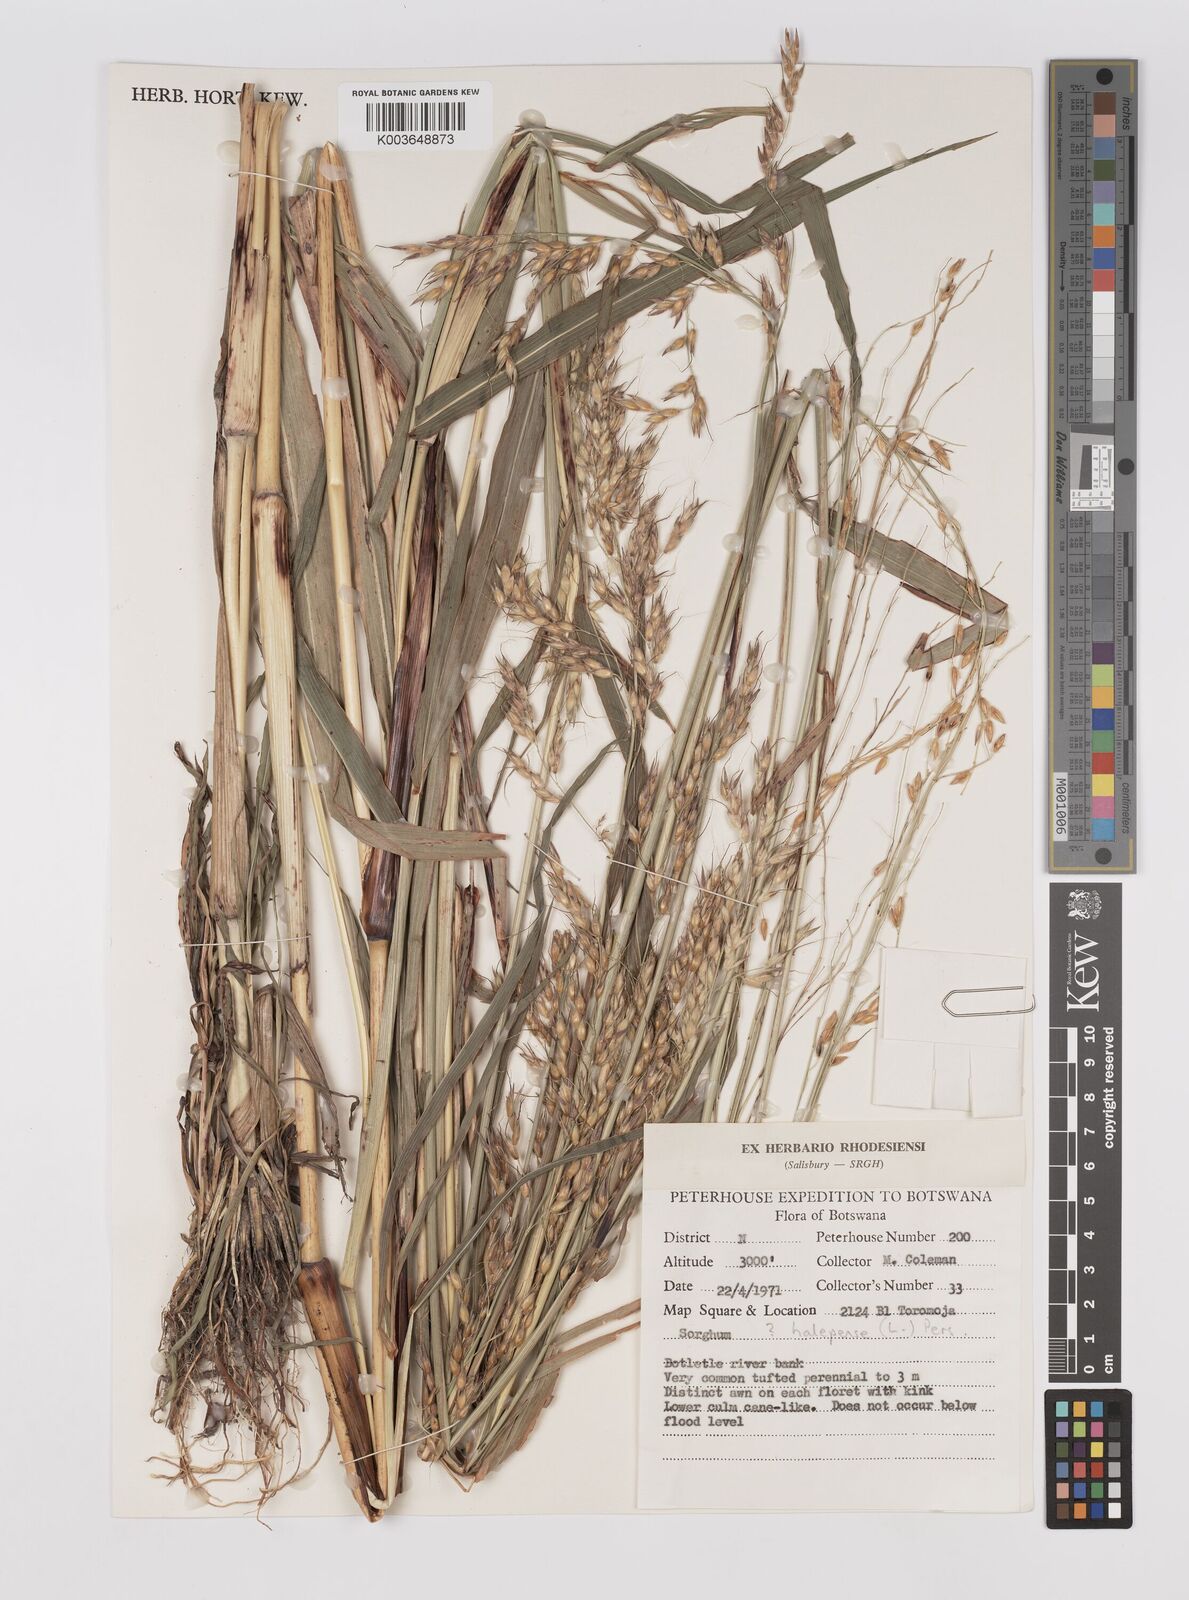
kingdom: Plantae
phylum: Tracheophyta
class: Liliopsida
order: Poales
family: Poaceae
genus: Sorghum
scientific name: Sorghum arundinaceum
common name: Sorghum
